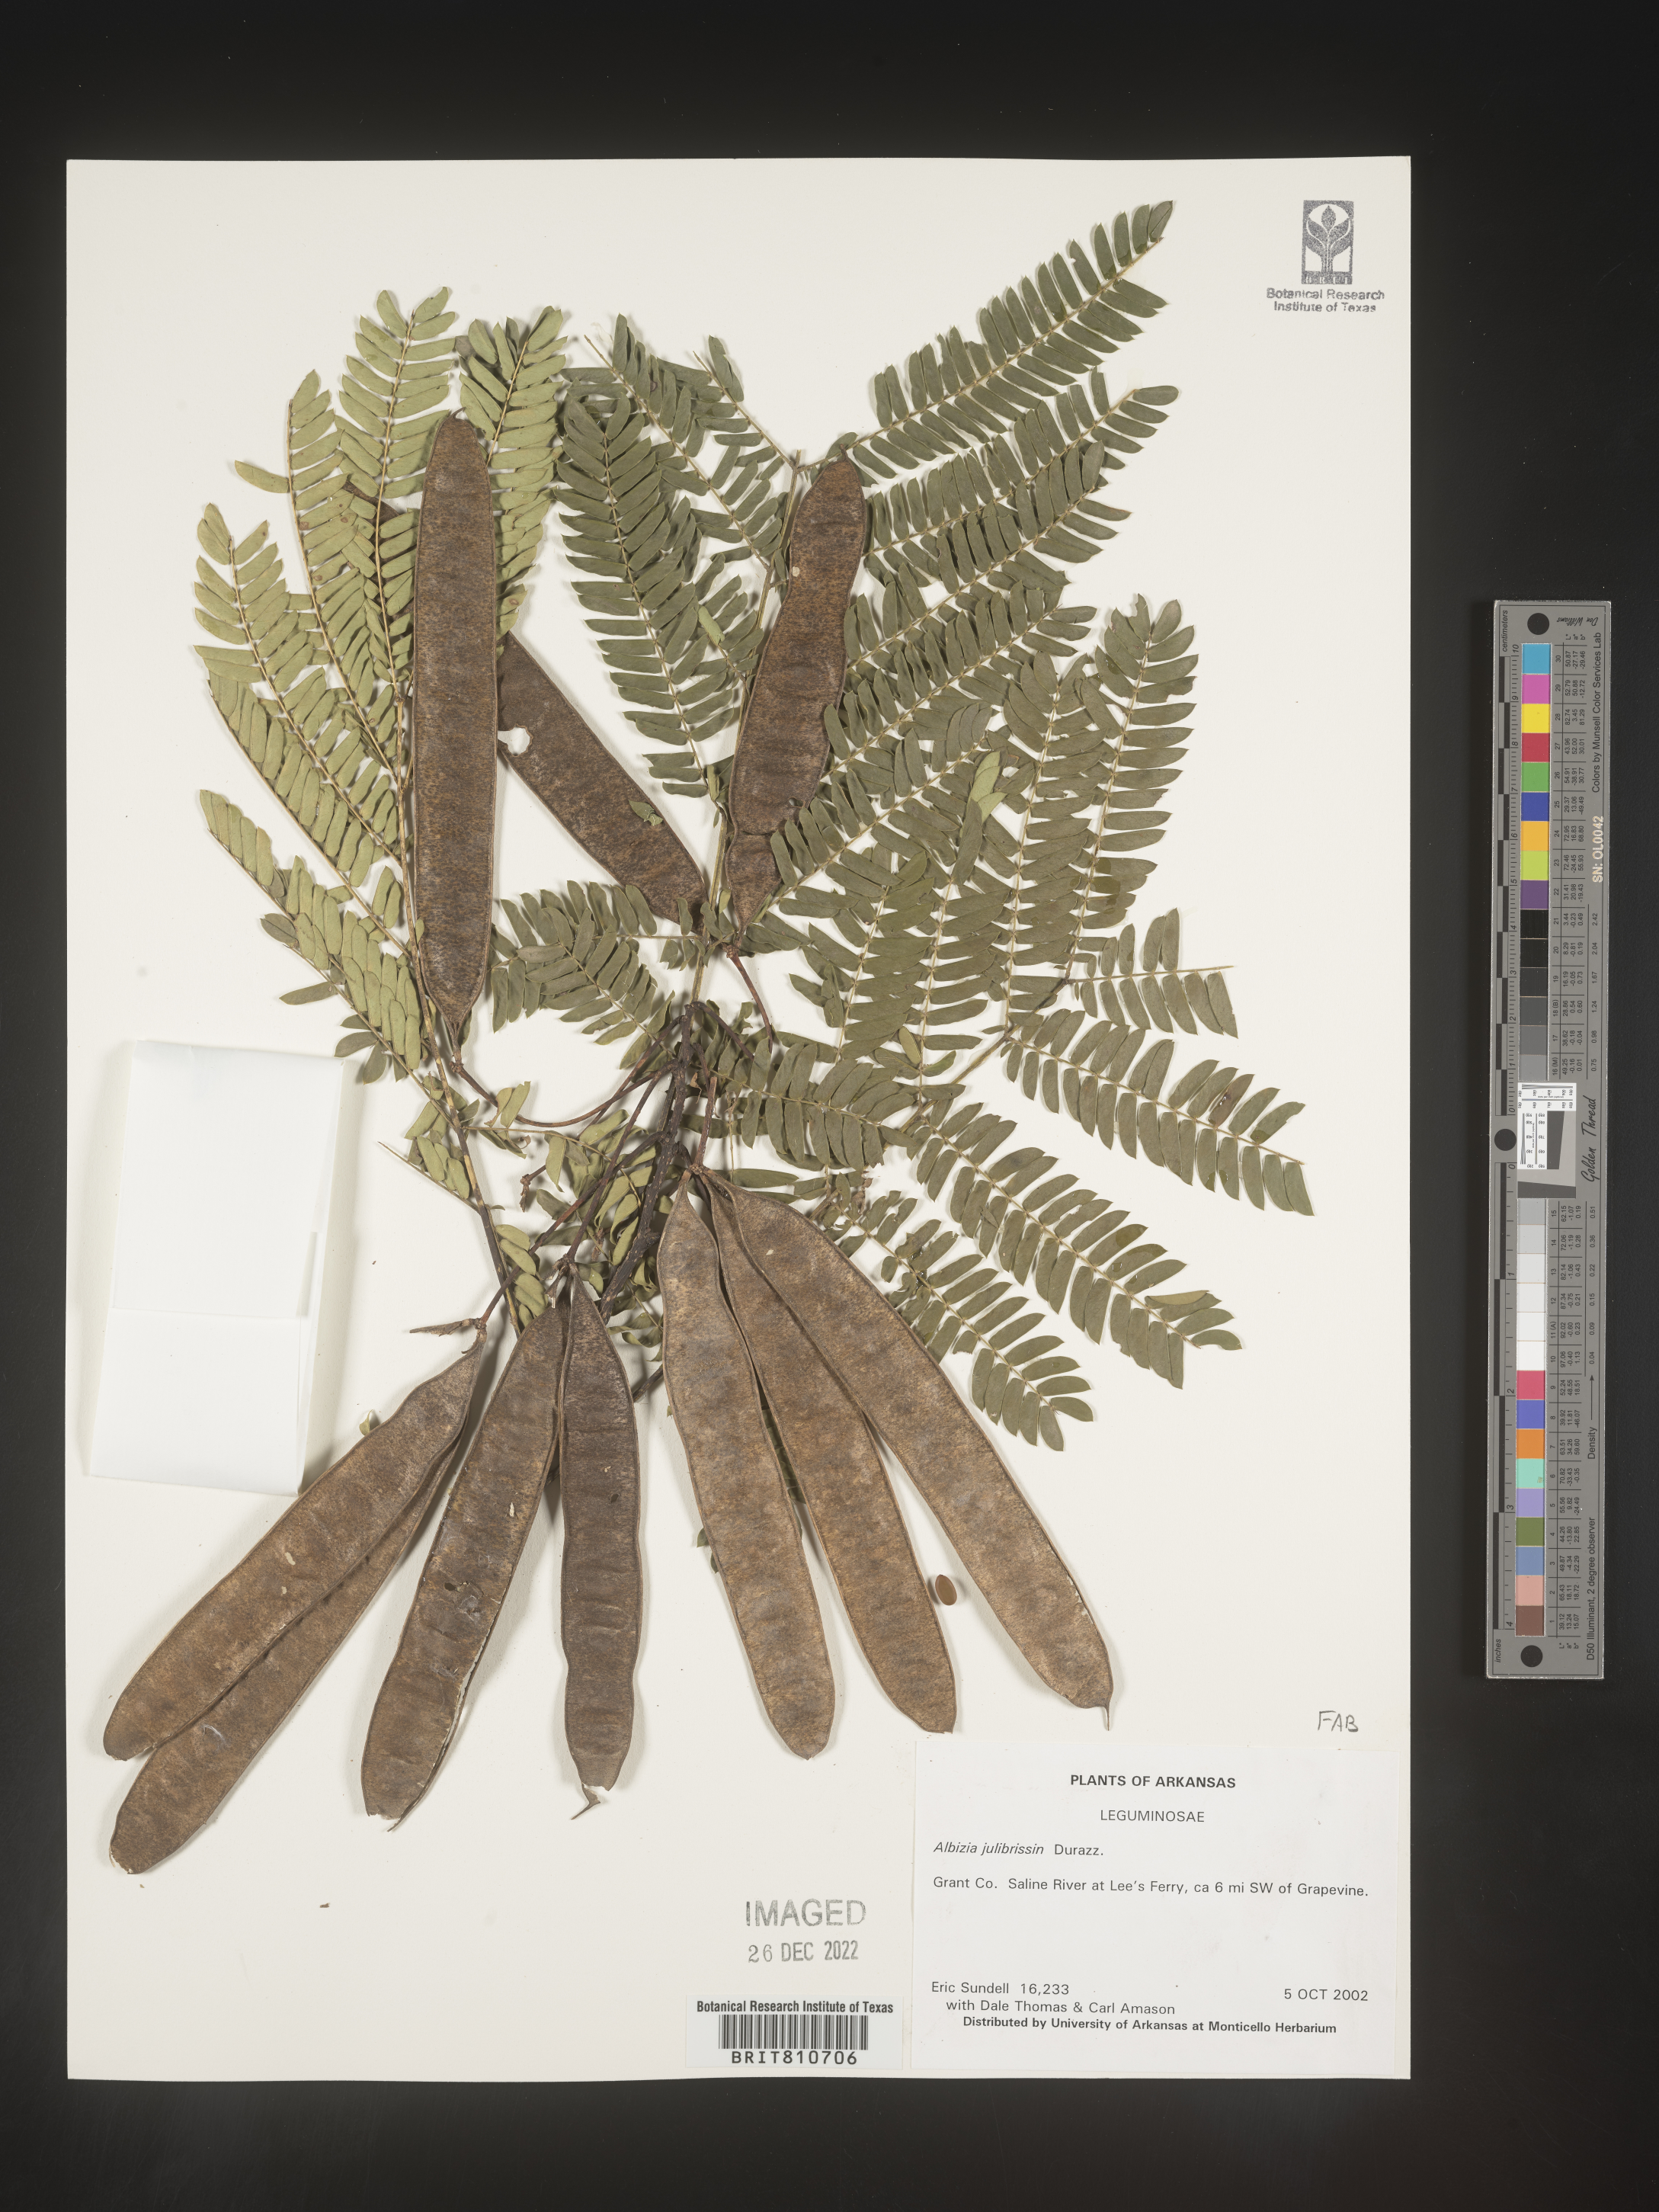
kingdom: Plantae
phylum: Tracheophyta
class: Magnoliopsida
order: Fabales
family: Fabaceae
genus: Albizia
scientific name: Albizia
